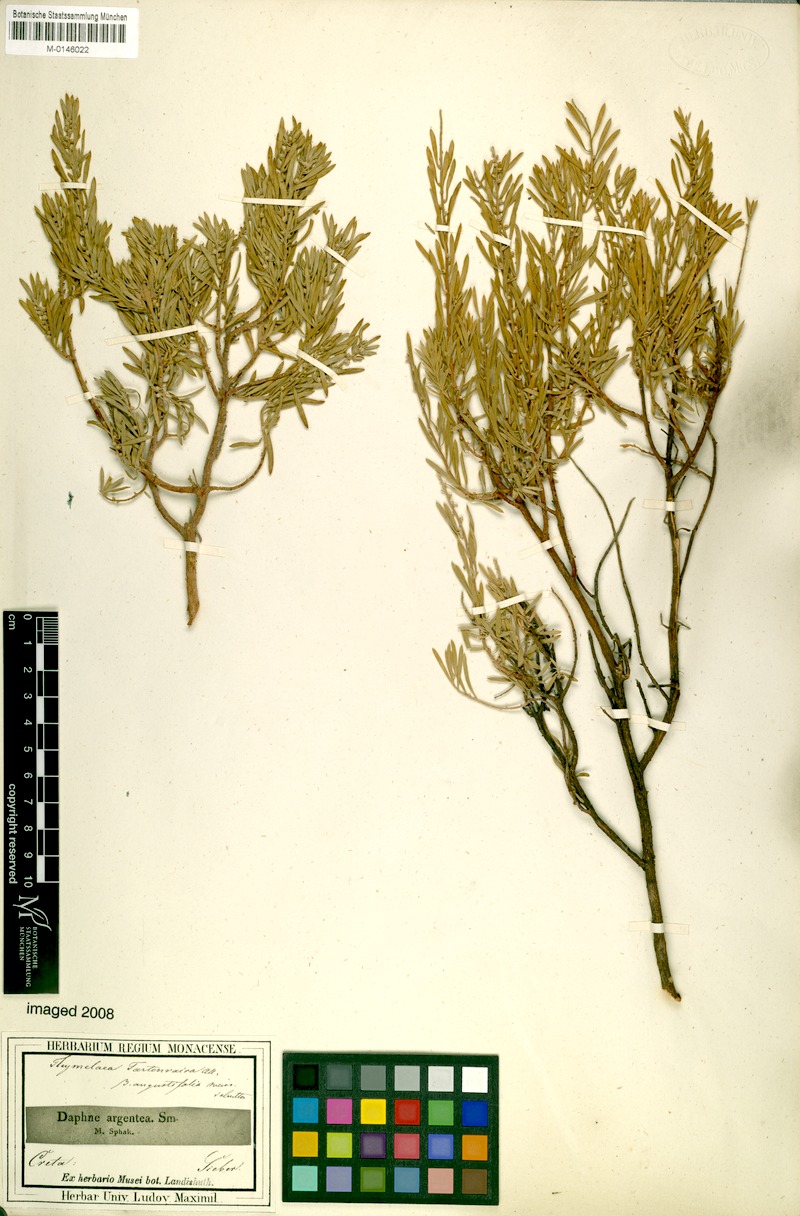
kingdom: Plantae
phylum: Tracheophyta
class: Magnoliopsida
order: Malvales
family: Thymelaeaceae
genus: Thymelaea
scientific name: Thymelaea tartonraira
